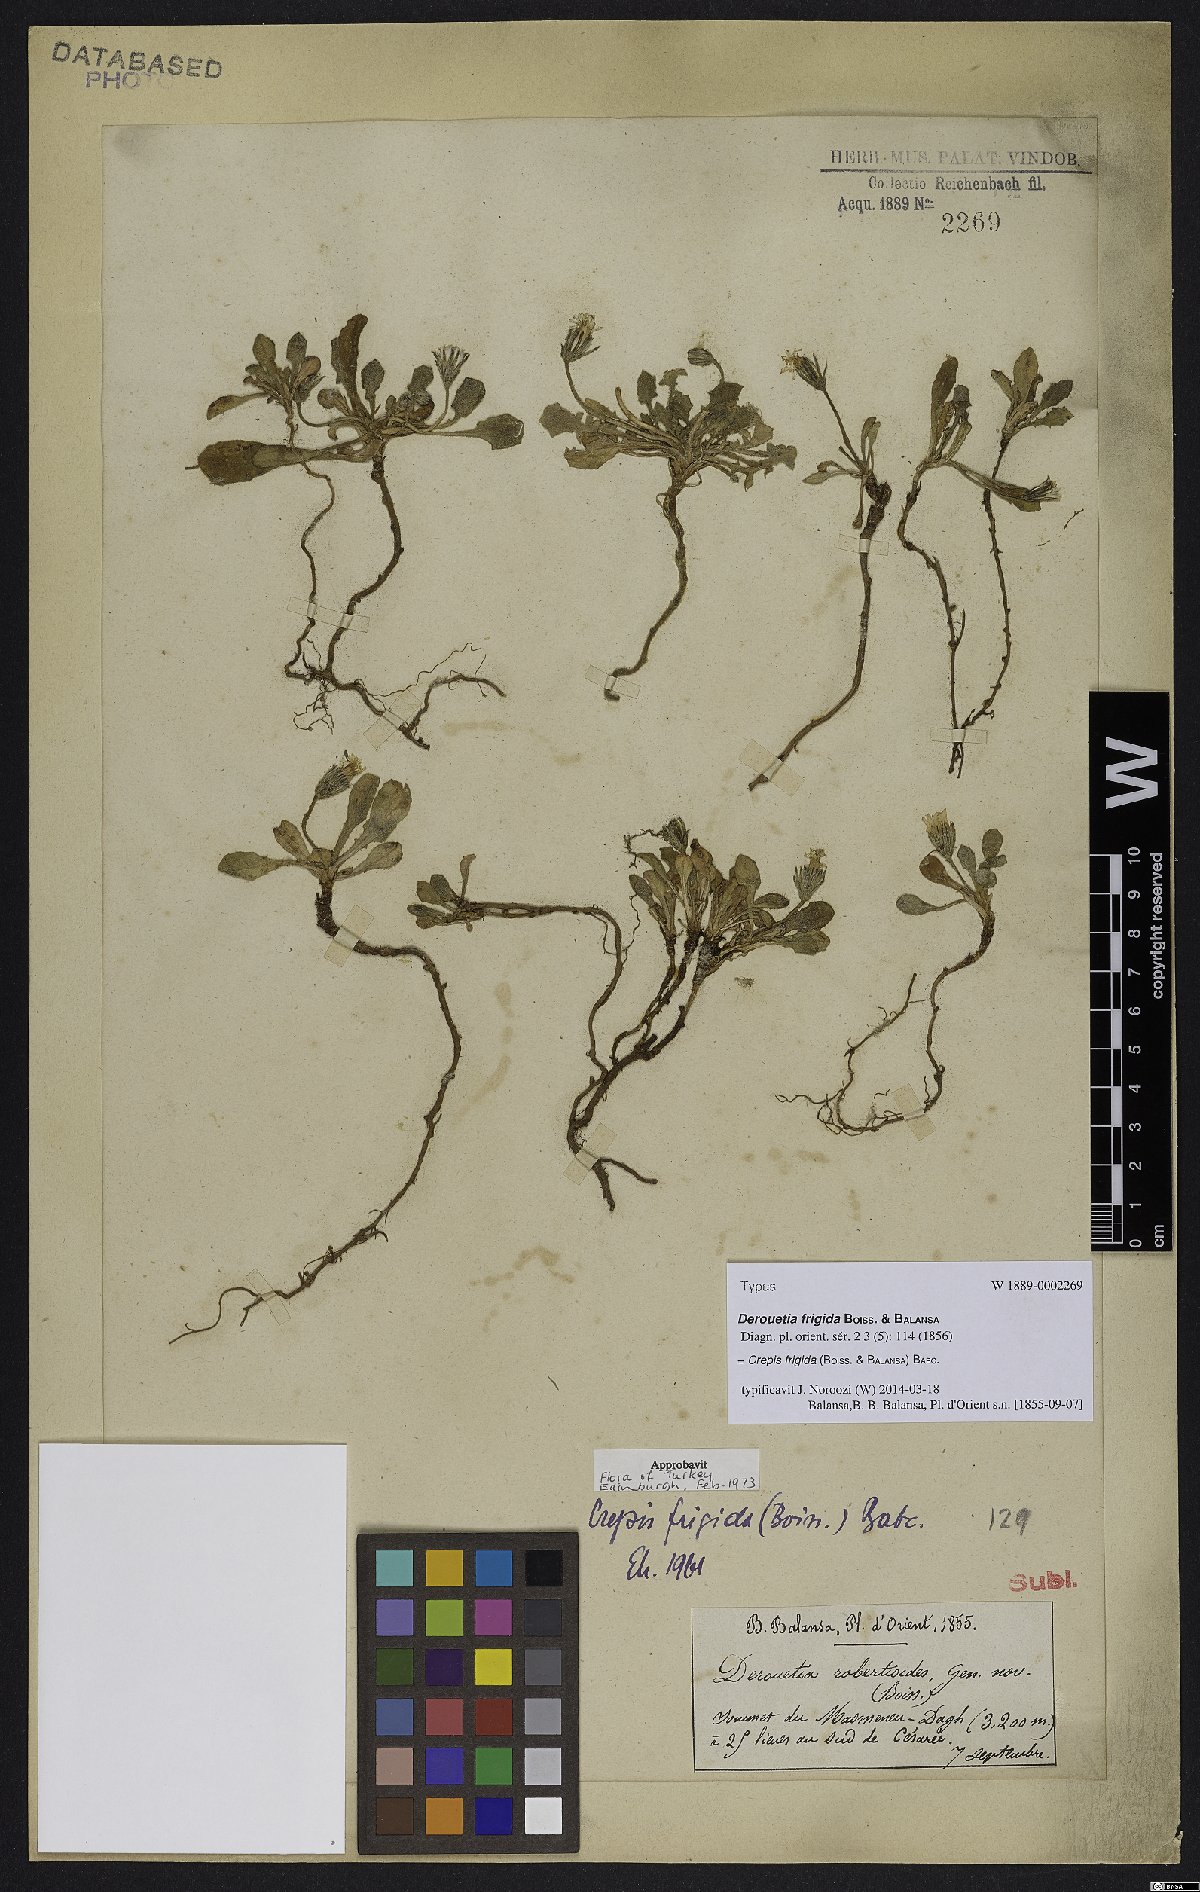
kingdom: Plantae
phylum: Tracheophyta
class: Magnoliopsida
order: Asterales
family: Asteraceae
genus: Crepis
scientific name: Crepis frigida
